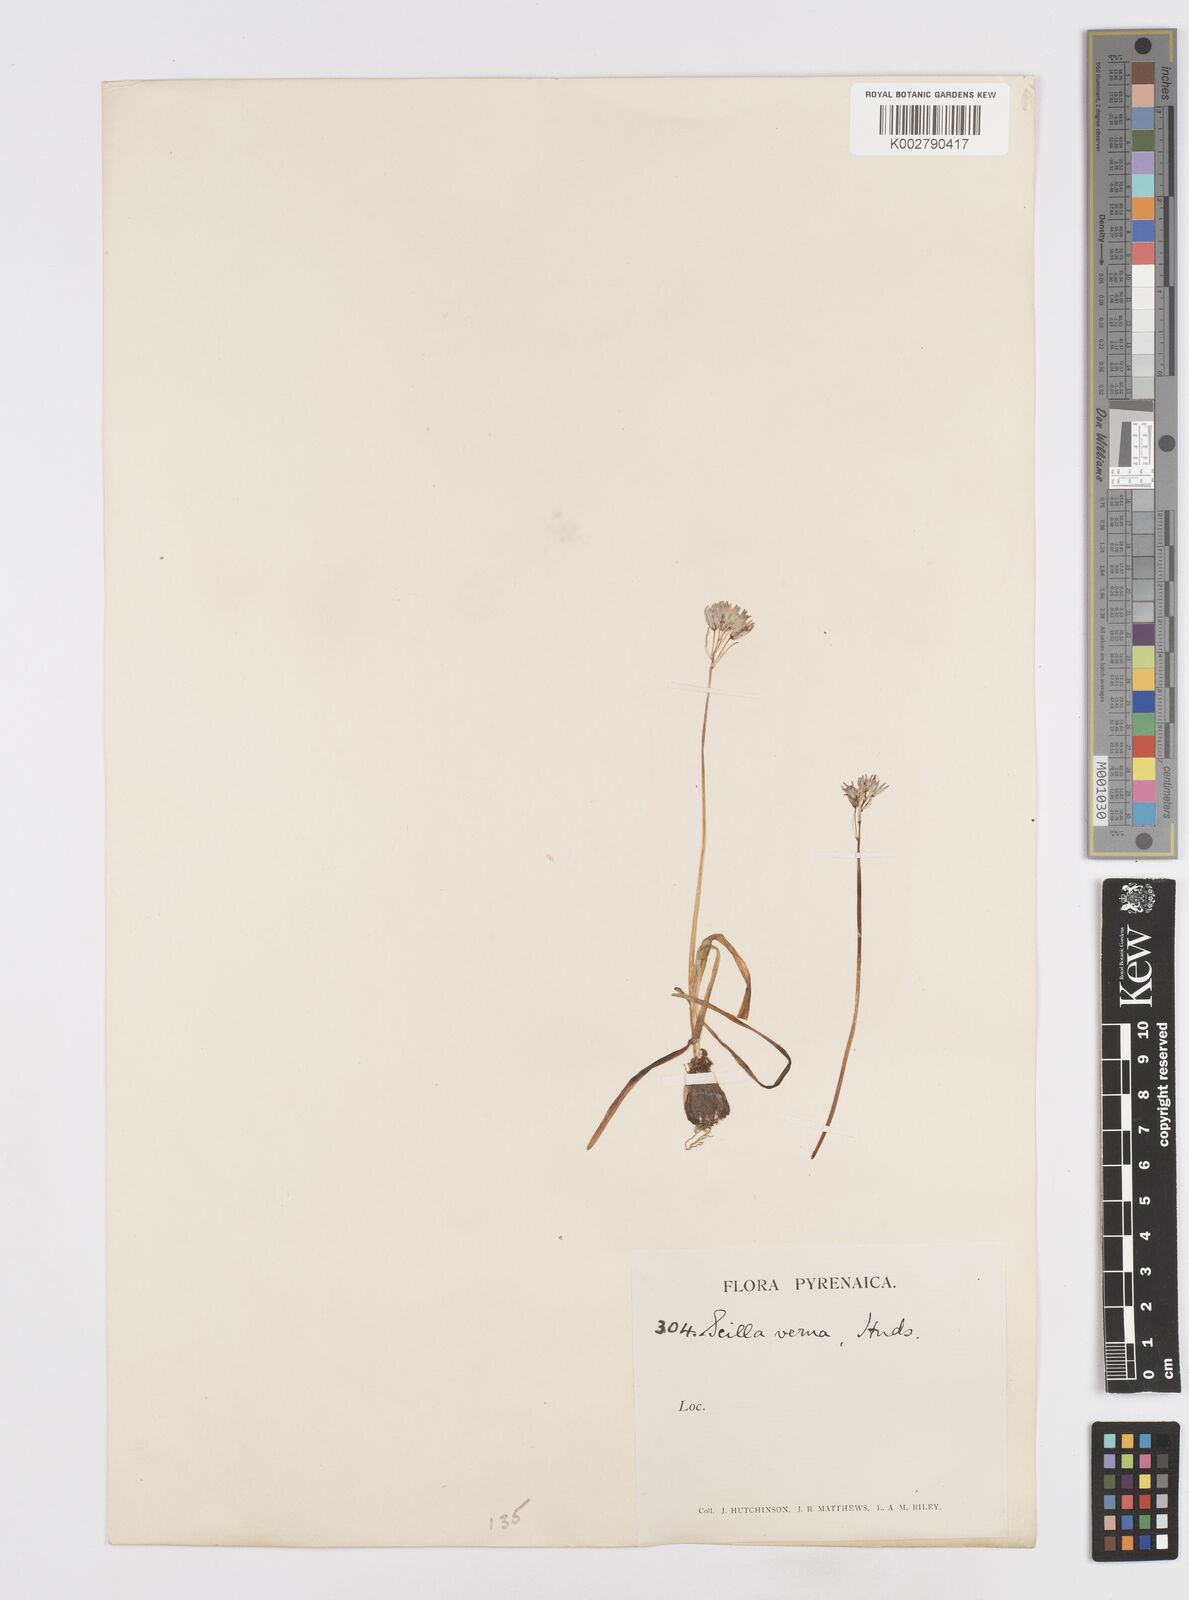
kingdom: Plantae
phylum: Tracheophyta
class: Liliopsida
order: Asparagales
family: Asparagaceae
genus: Scilla
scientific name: Scilla verna
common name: Spring squill
